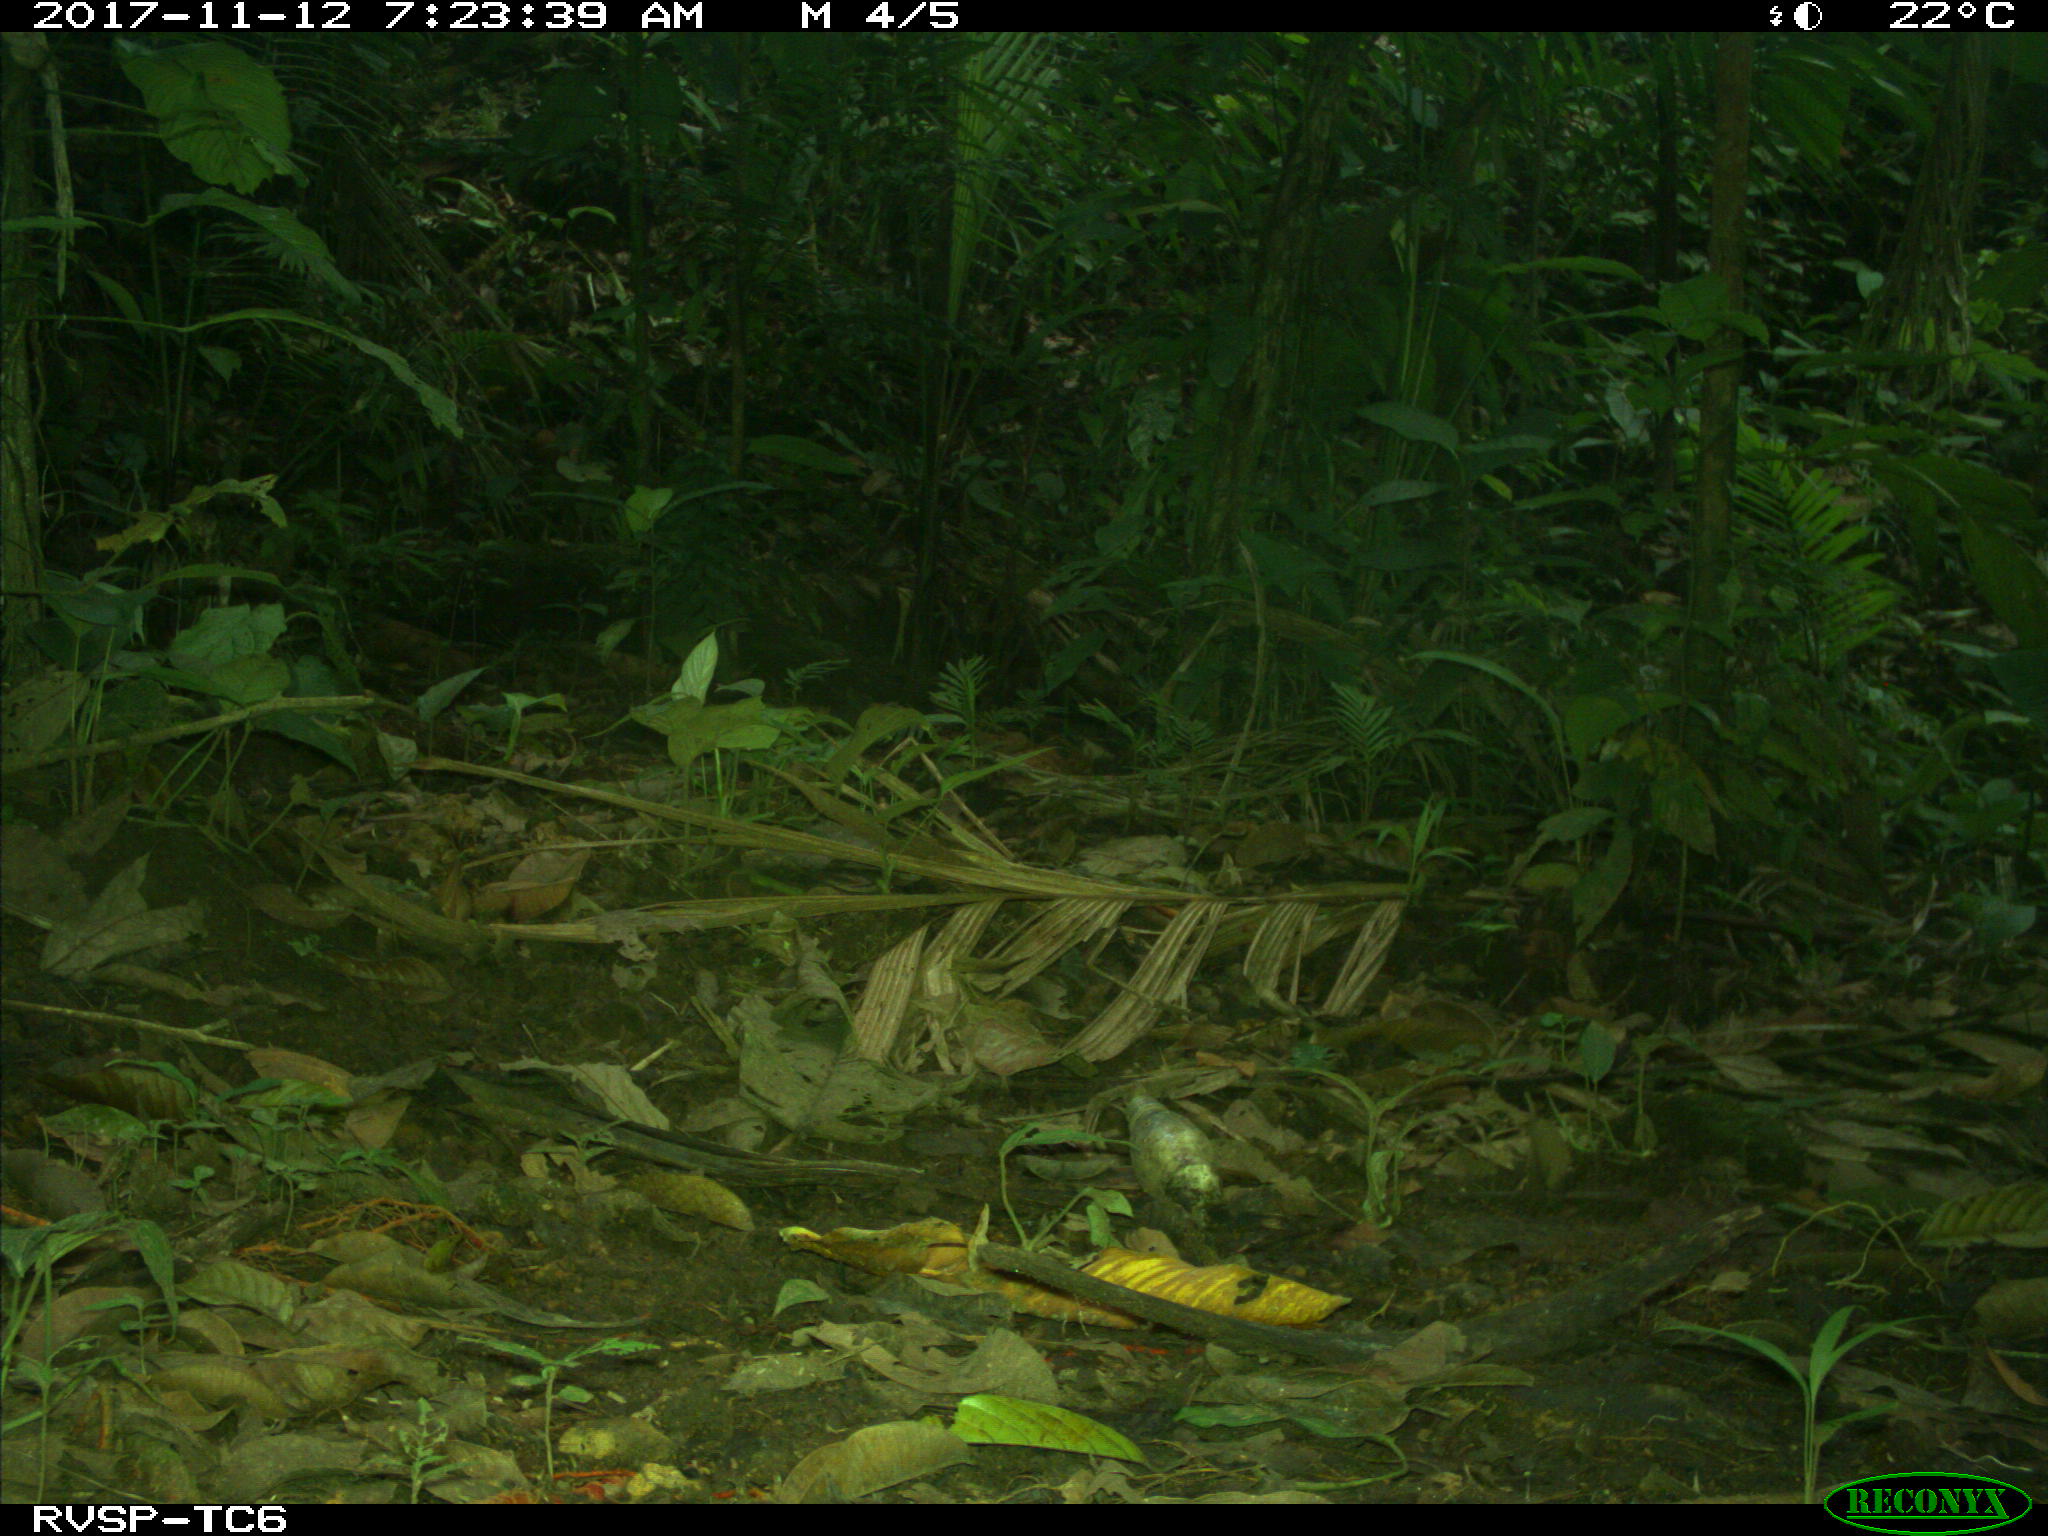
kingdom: Animalia
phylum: Chordata
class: Mammalia
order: Carnivora
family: Mustelidae
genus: Eira
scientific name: Eira barbara
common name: Tayra
